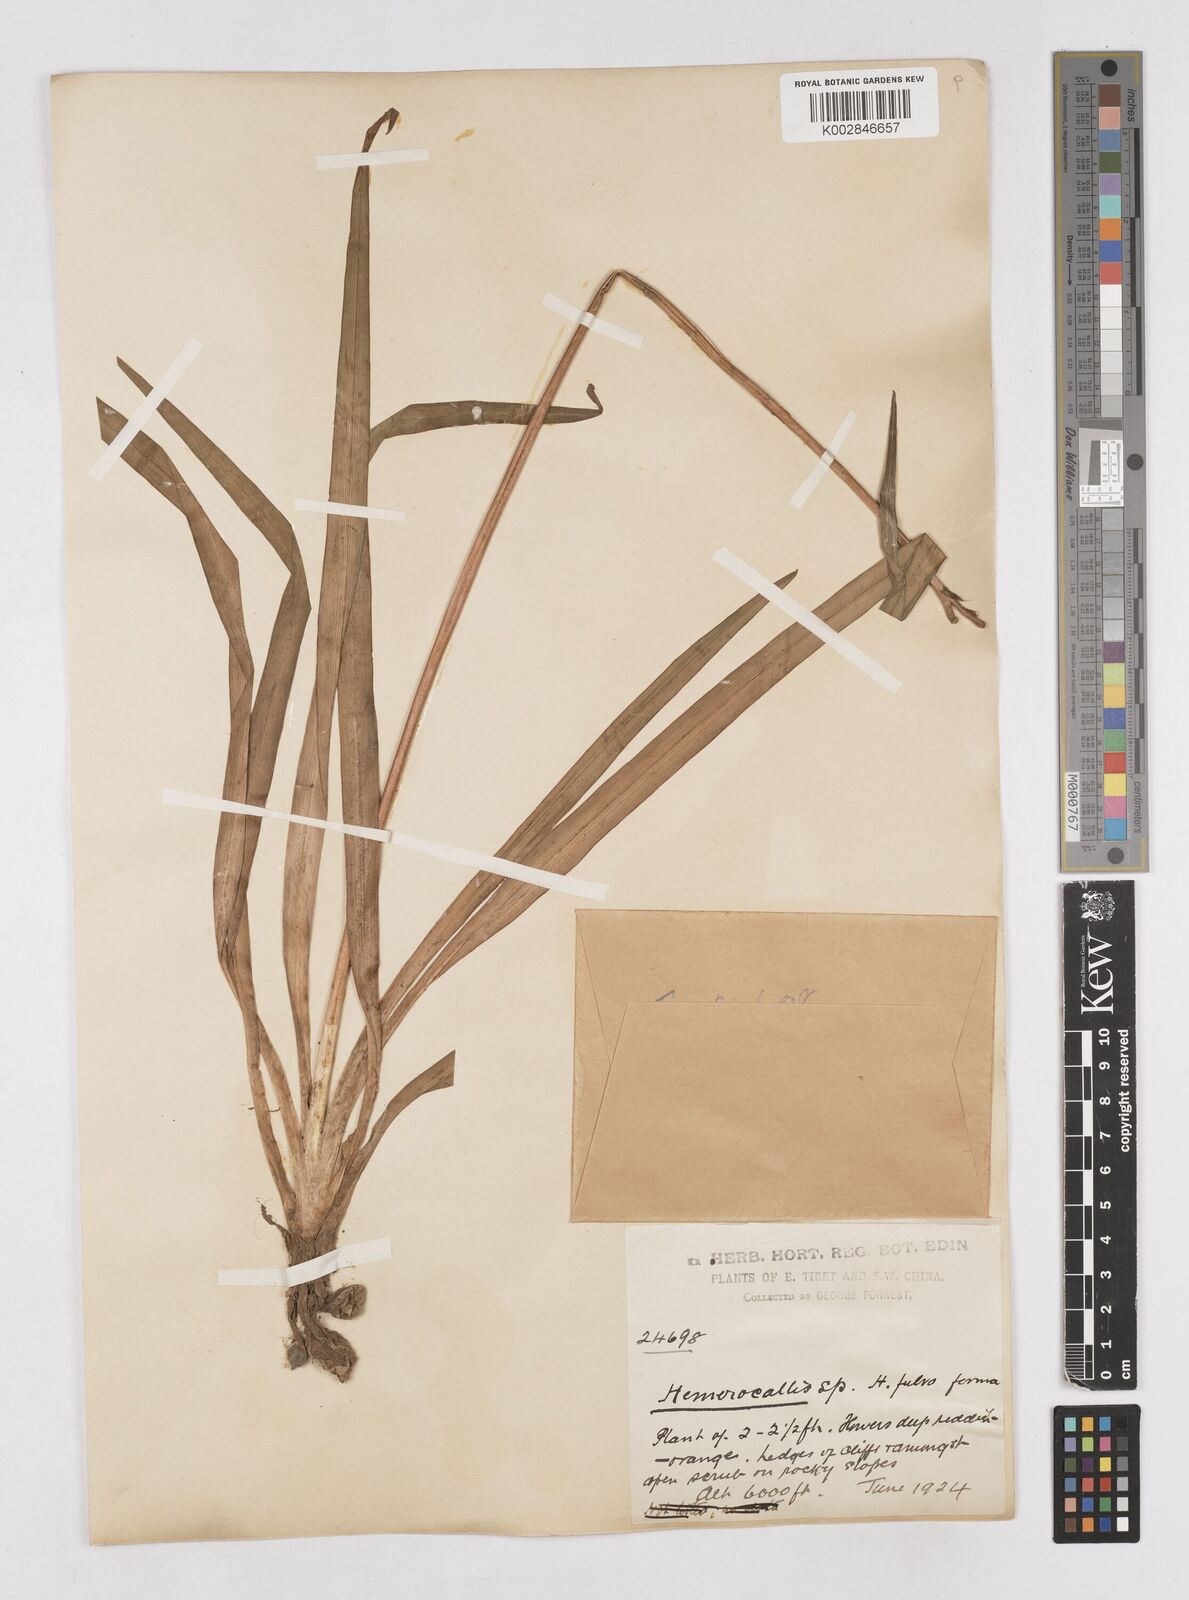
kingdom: Plantae
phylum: Tracheophyta
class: Liliopsida
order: Asparagales
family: Asphodelaceae
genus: Hemerocallis
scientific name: Hemerocallis fulva
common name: Orange day-lily
